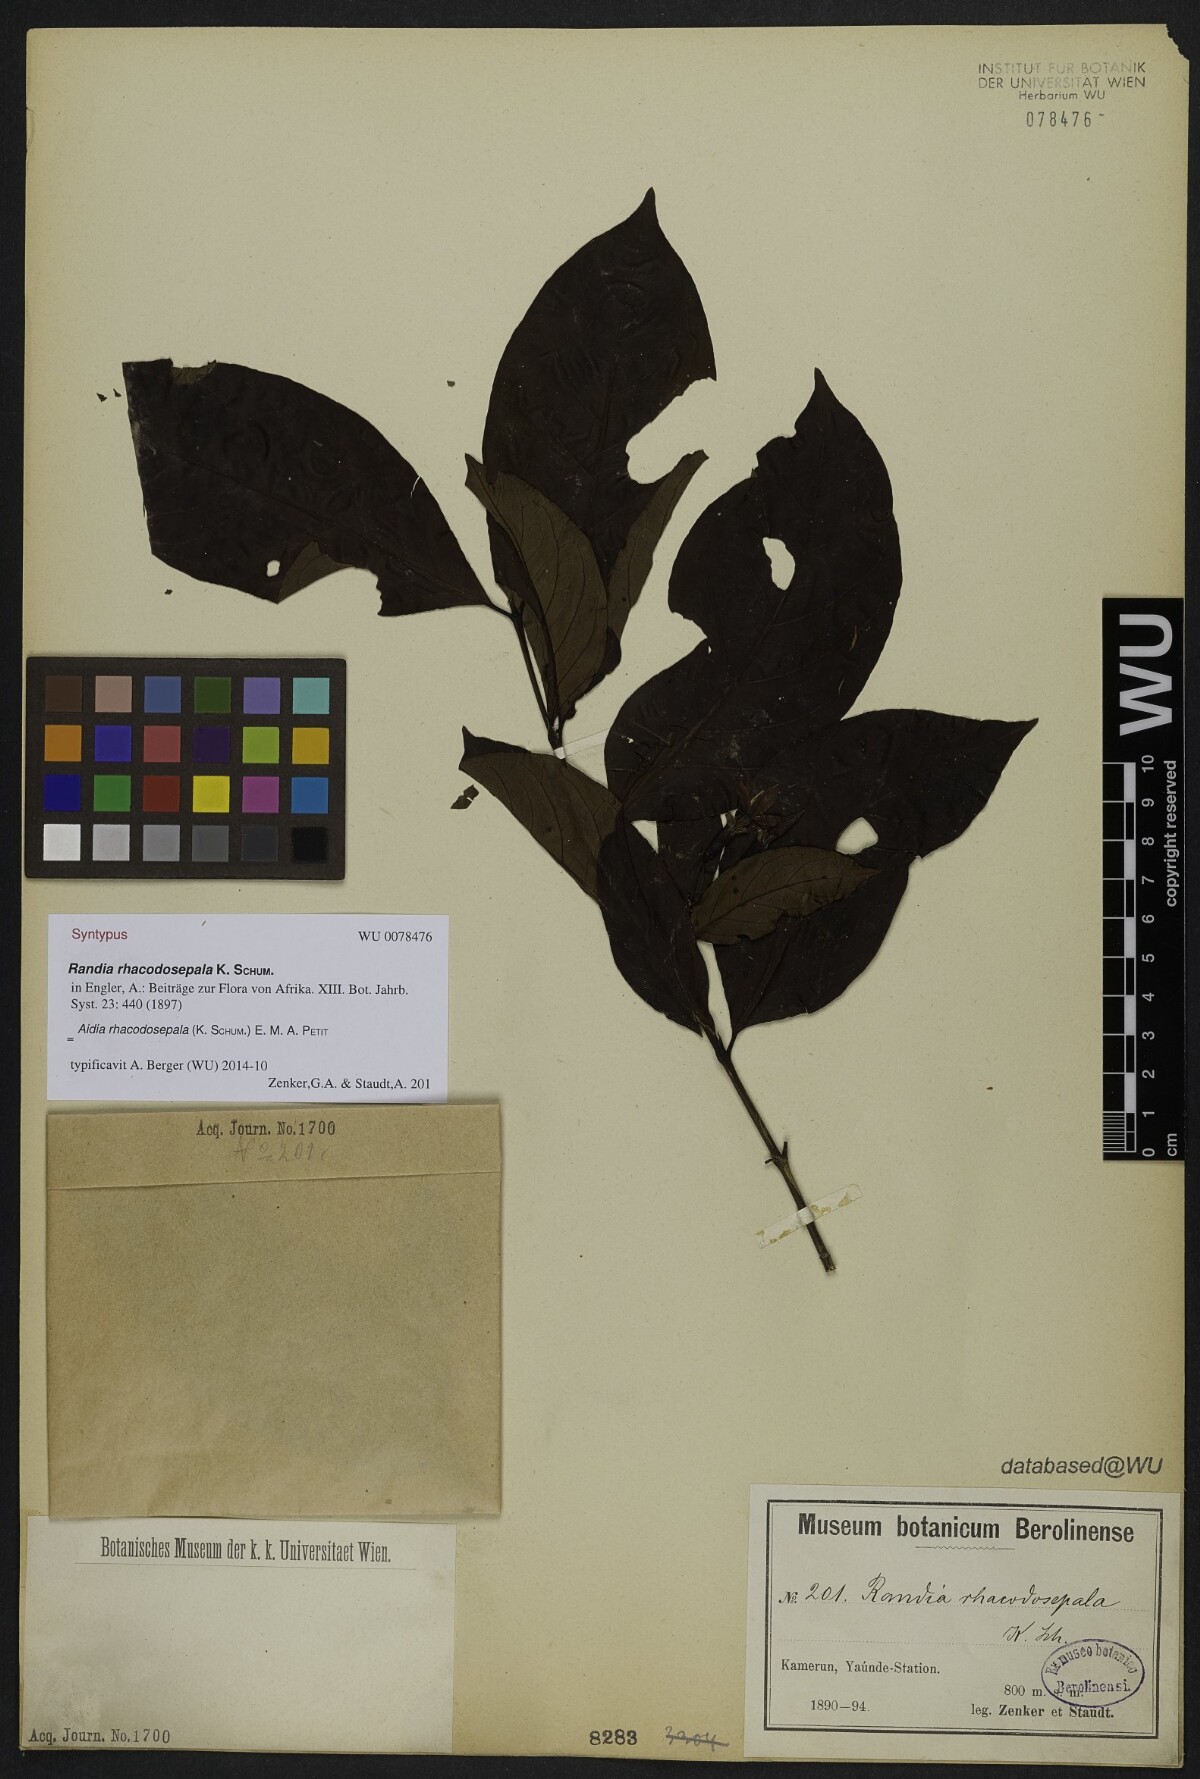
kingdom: Plantae
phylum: Tracheophyta
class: Magnoliopsida
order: Gentianales
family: Rubiaceae
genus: Aidia
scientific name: Aidia rhacodosepala
